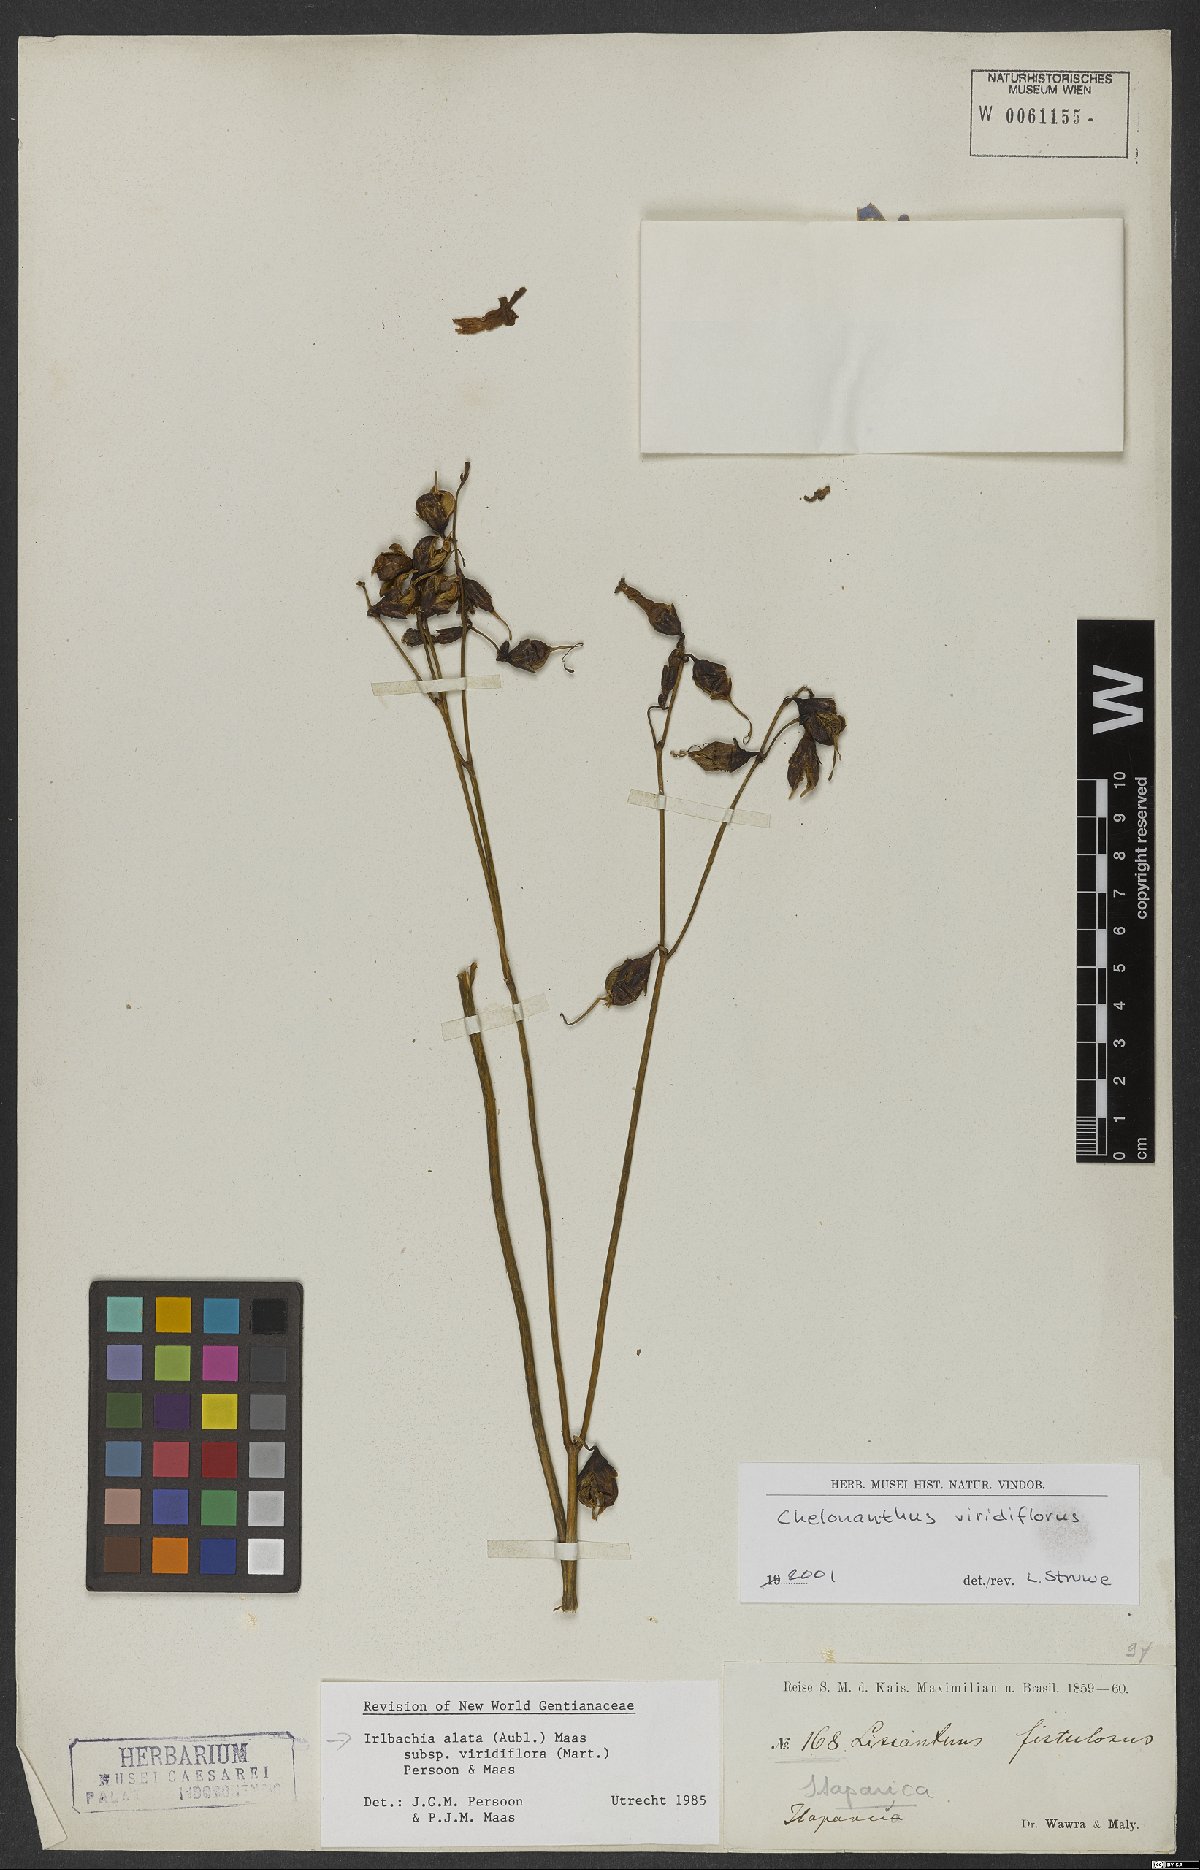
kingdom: Plantae
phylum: Tracheophyta
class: Magnoliopsida
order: Gentianales
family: Gentianaceae
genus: Chelonanthus
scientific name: Chelonanthus viridiflorus
